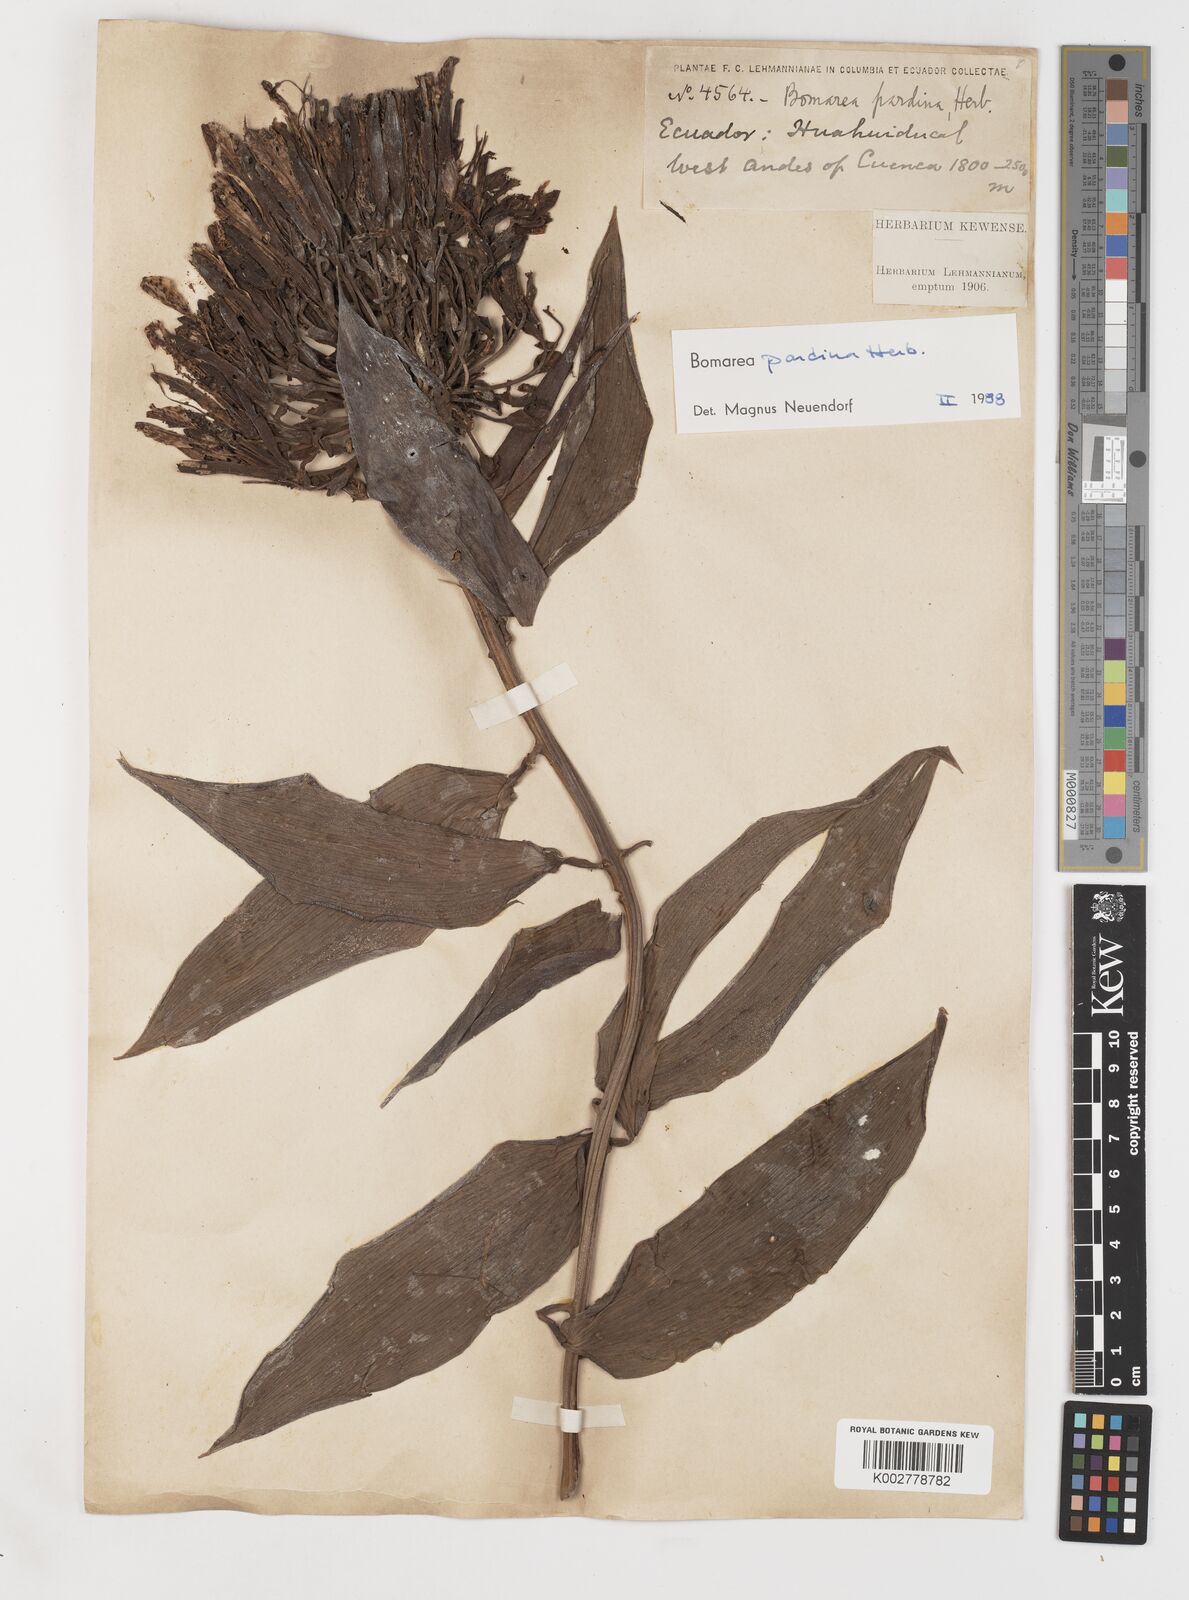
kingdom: Plantae
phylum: Tracheophyta
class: Liliopsida
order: Liliales
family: Alstroemeriaceae
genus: Bomarea
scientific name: Bomarea pardina
